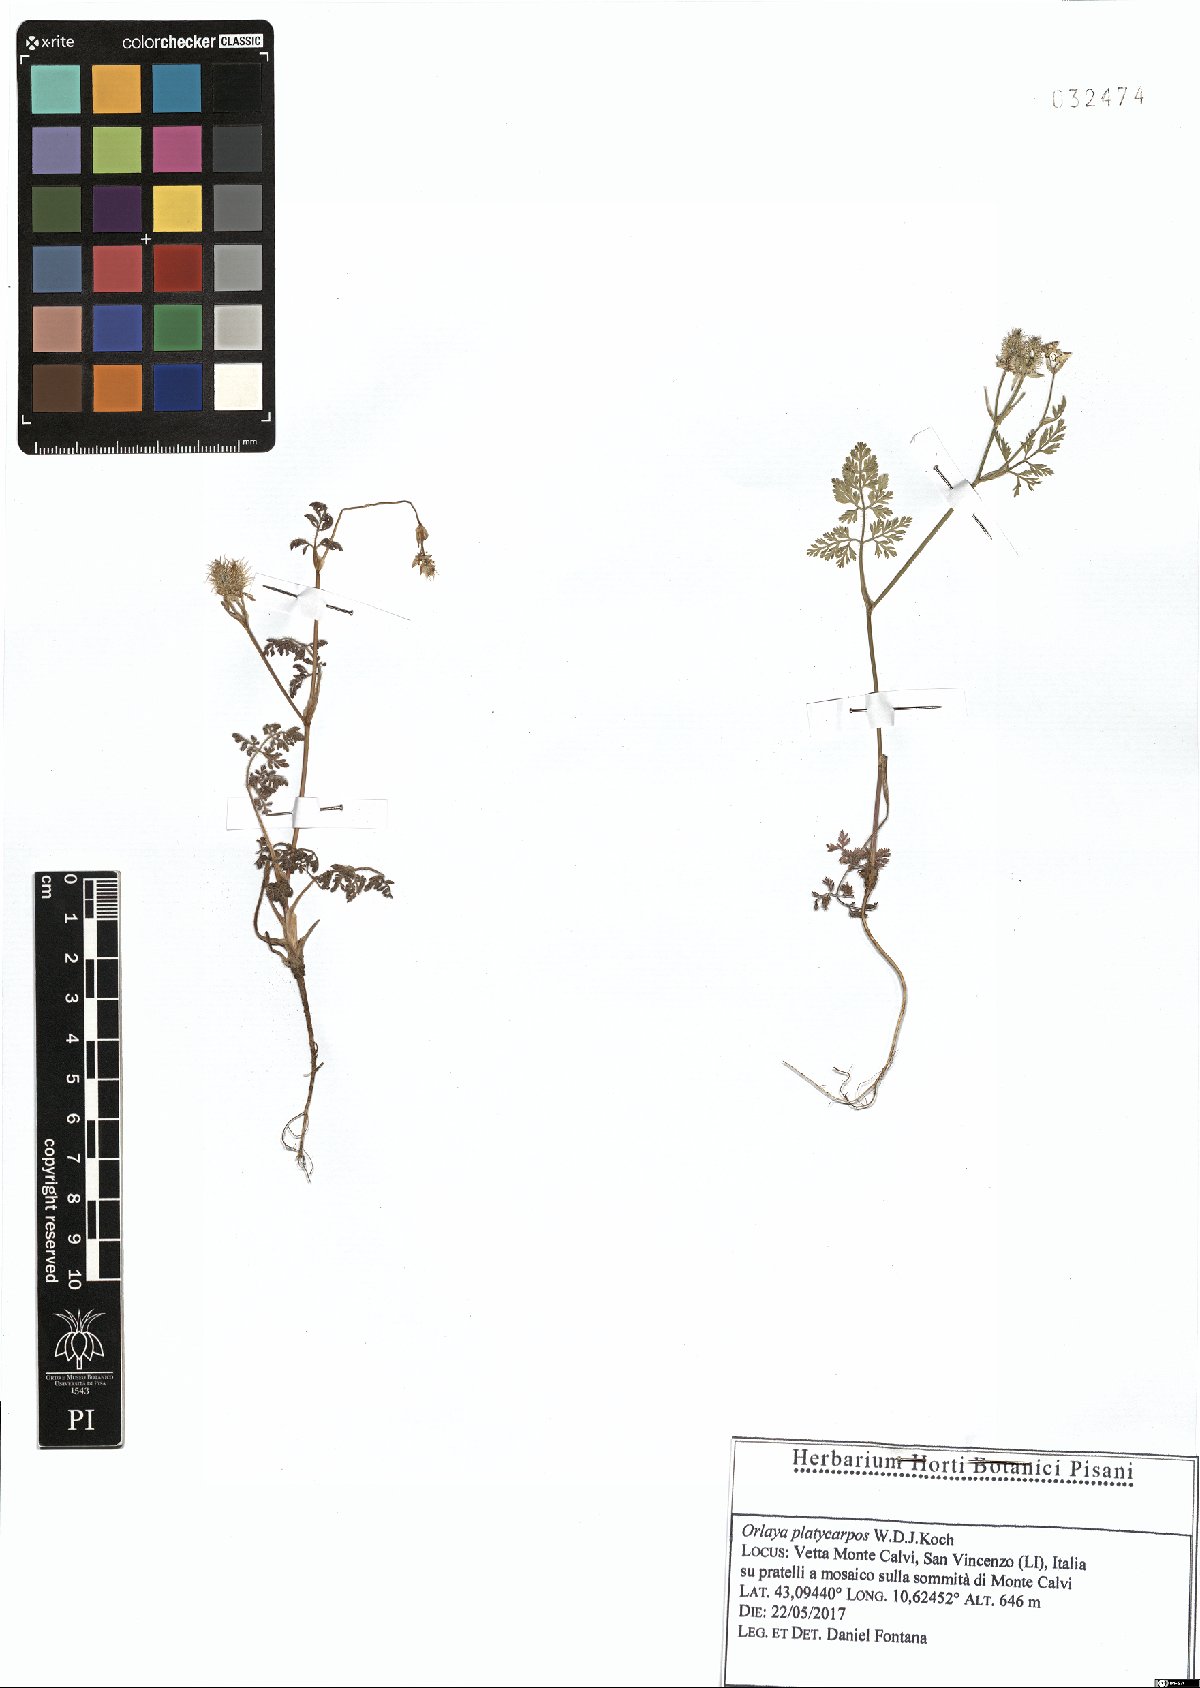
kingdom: Plantae
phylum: Tracheophyta
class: Magnoliopsida
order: Apiales
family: Apiaceae
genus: Orlaya
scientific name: Orlaya daucoides
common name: Flat-fruit orlaya
